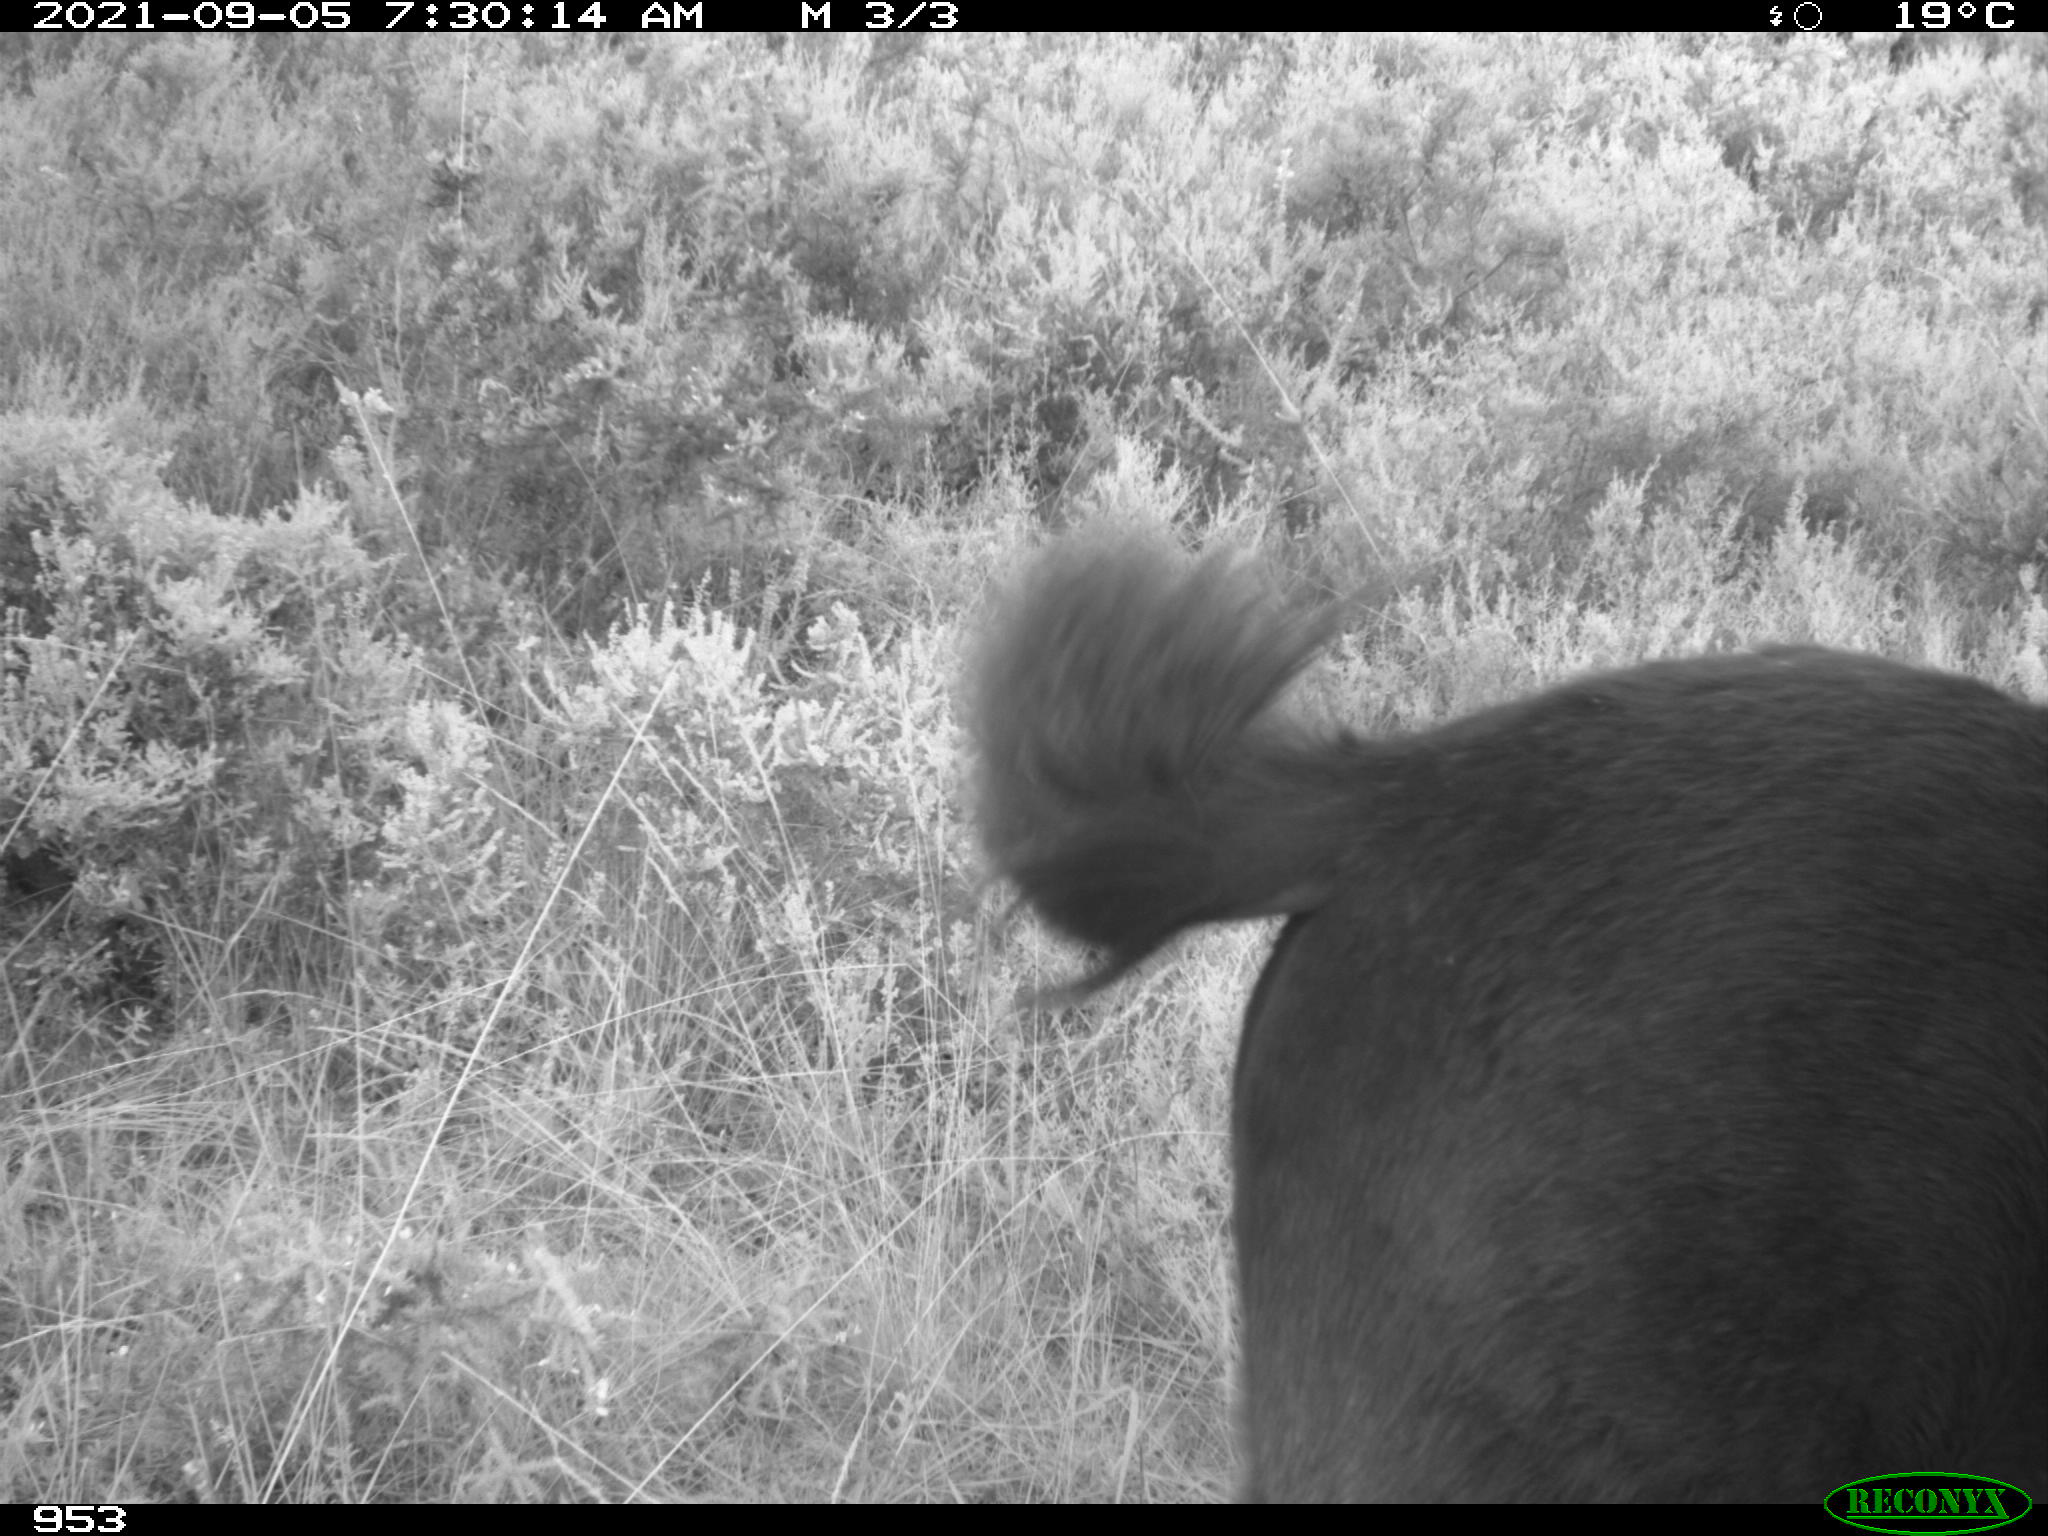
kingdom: Animalia
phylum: Chordata
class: Mammalia
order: Perissodactyla
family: Equidae
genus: Equus
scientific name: Equus caballus
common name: Horse
